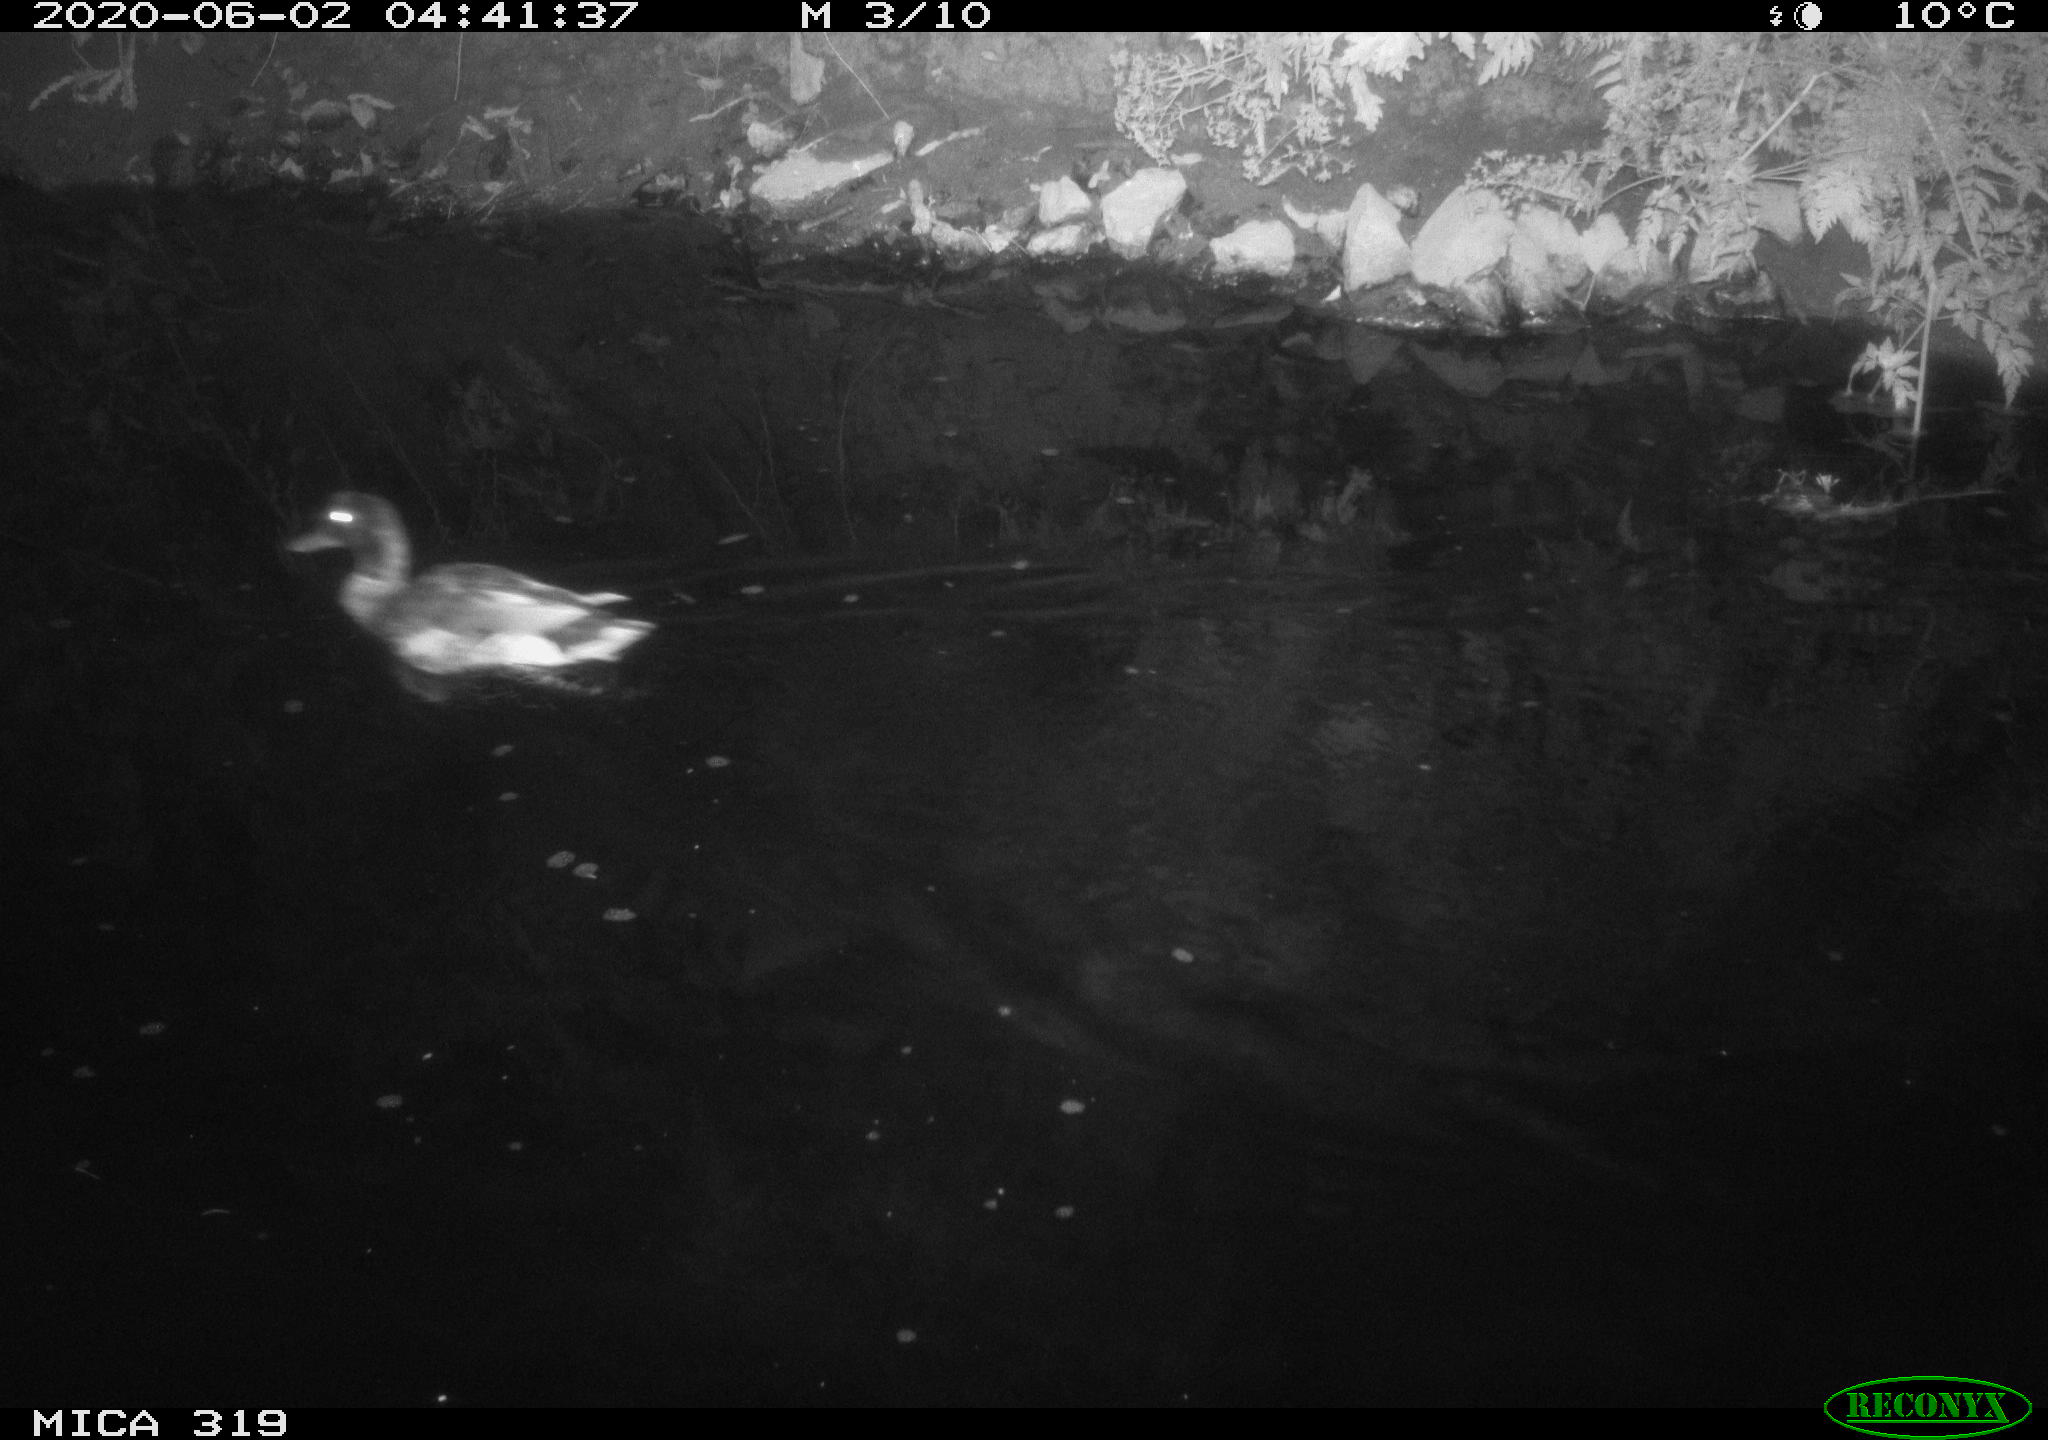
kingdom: Animalia
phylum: Chordata
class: Aves
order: Anseriformes
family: Anatidae
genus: Anas
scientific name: Anas platyrhynchos
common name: Mallard
